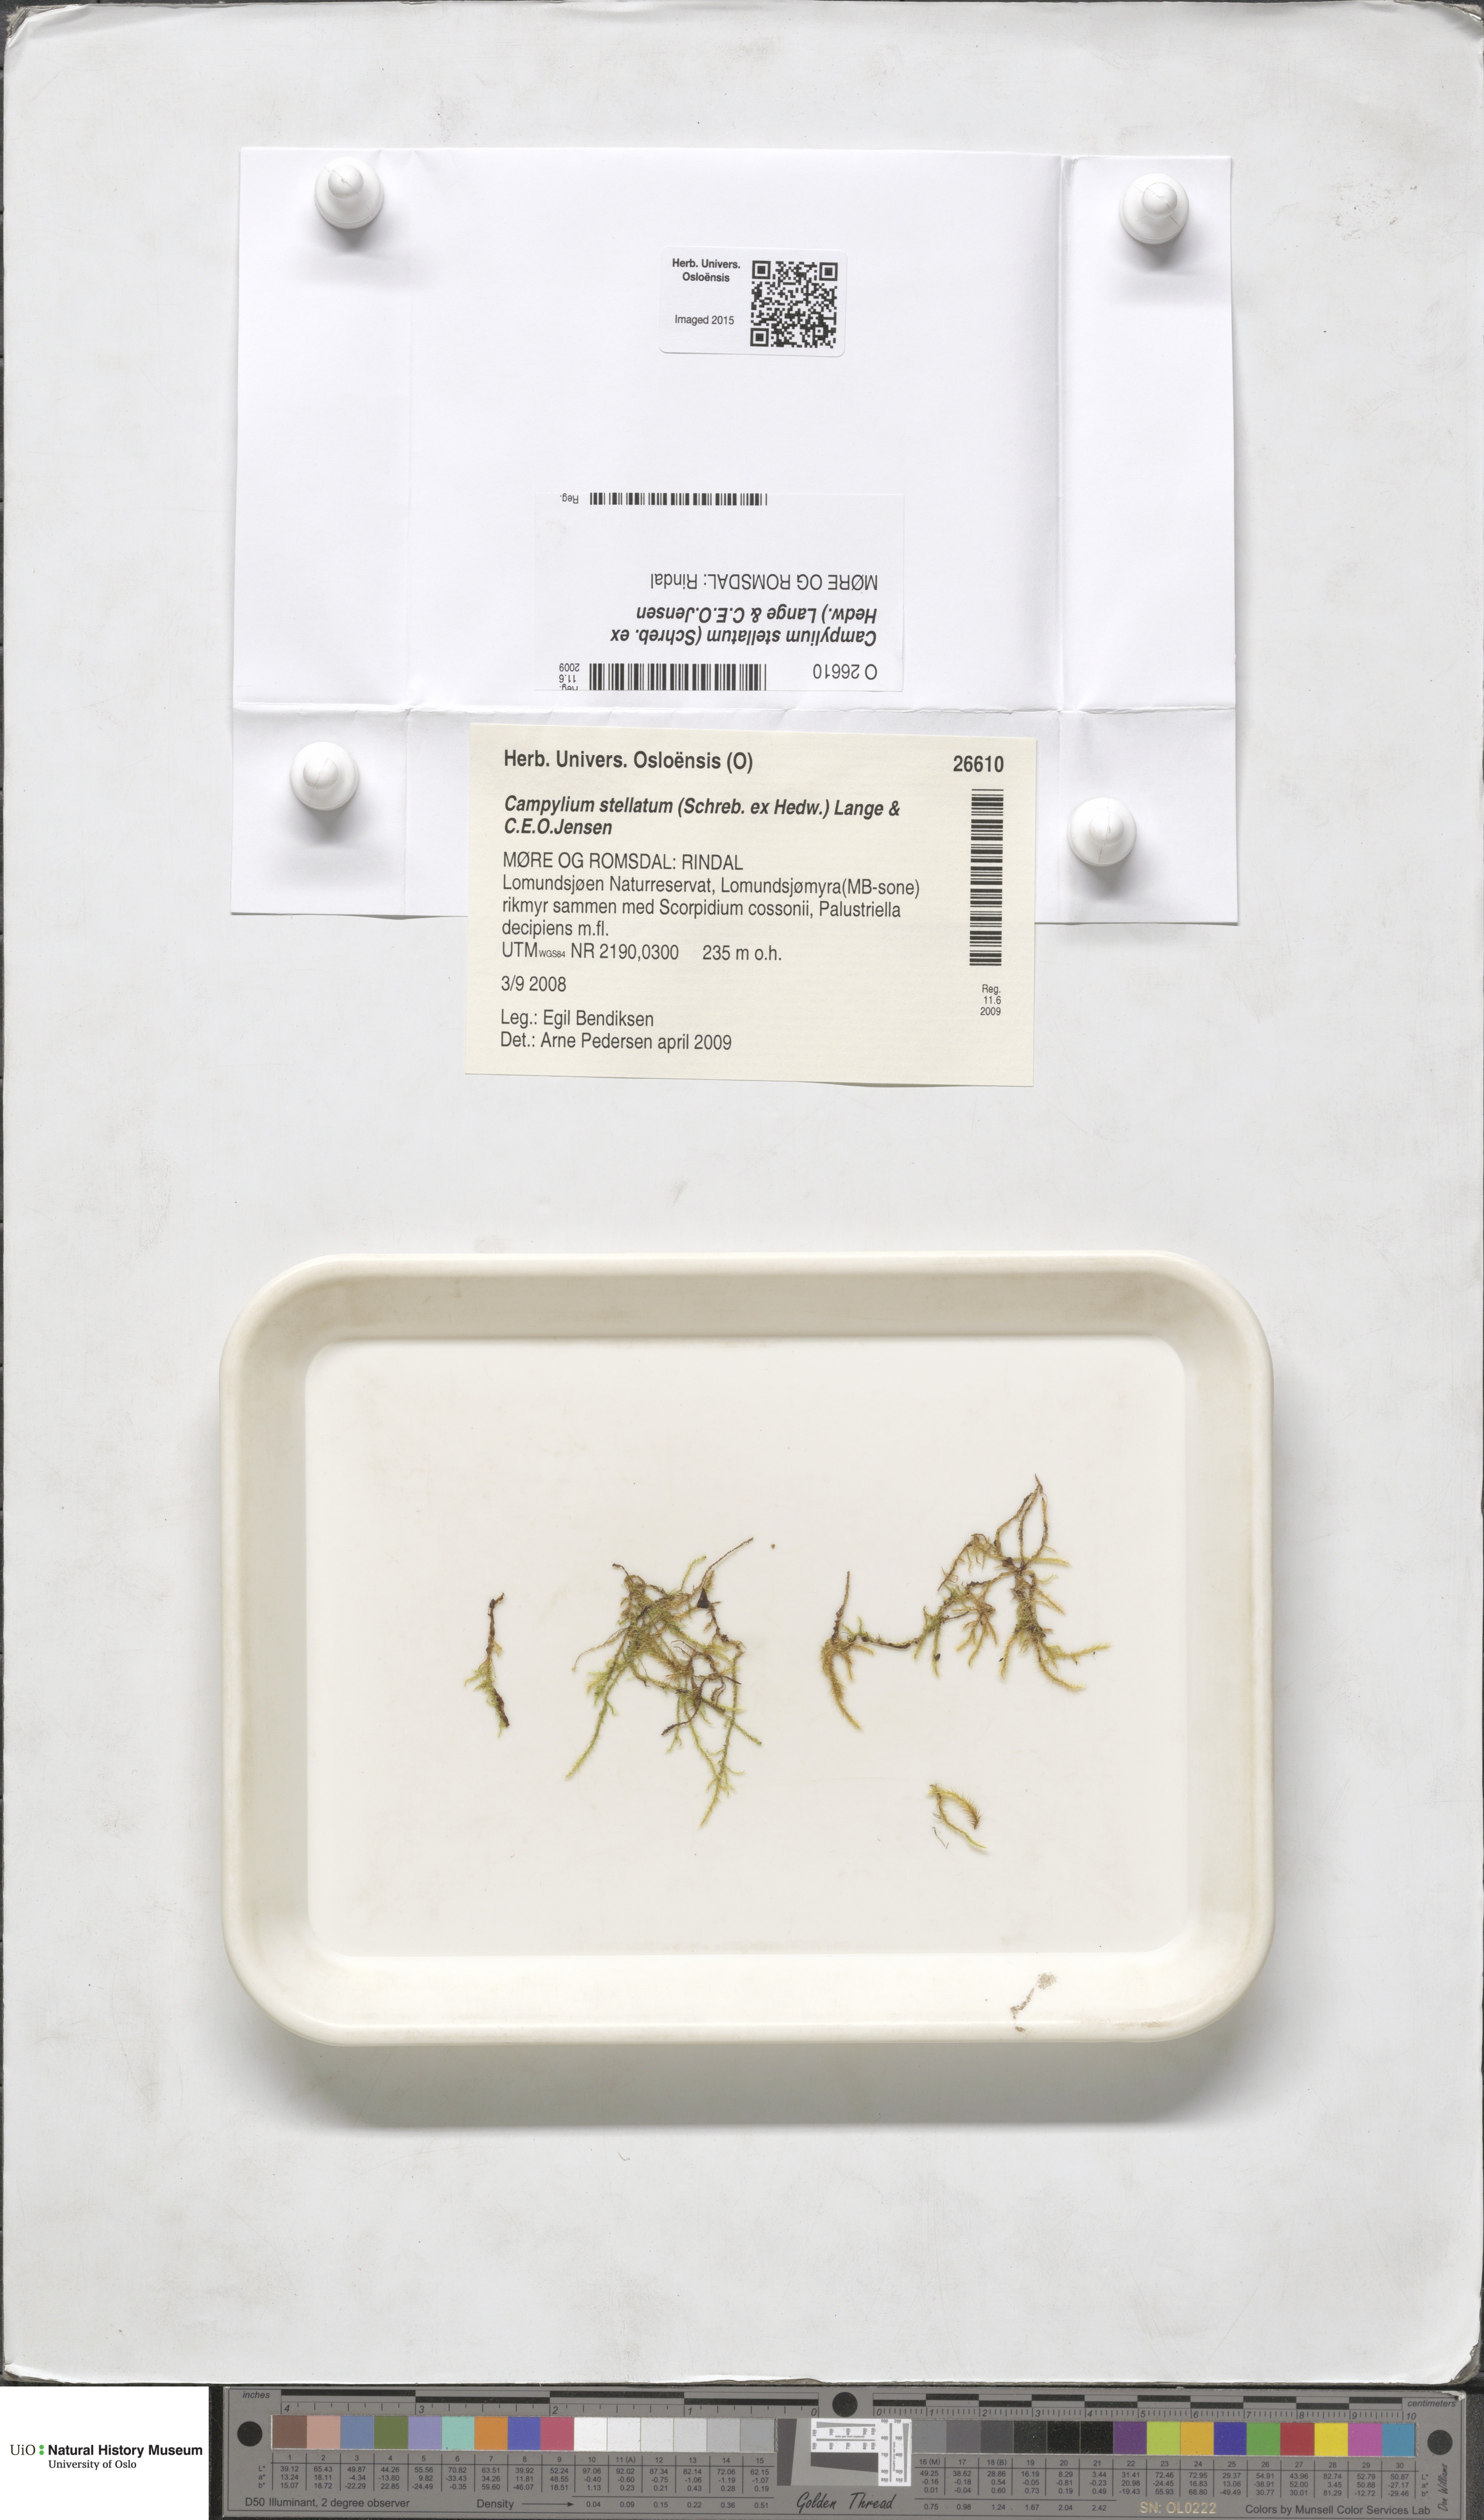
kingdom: Plantae
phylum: Bryophyta
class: Bryopsida
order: Hypnales
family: Amblystegiaceae
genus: Campylium
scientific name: Campylium stellatum
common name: Yellow starry fen moss
